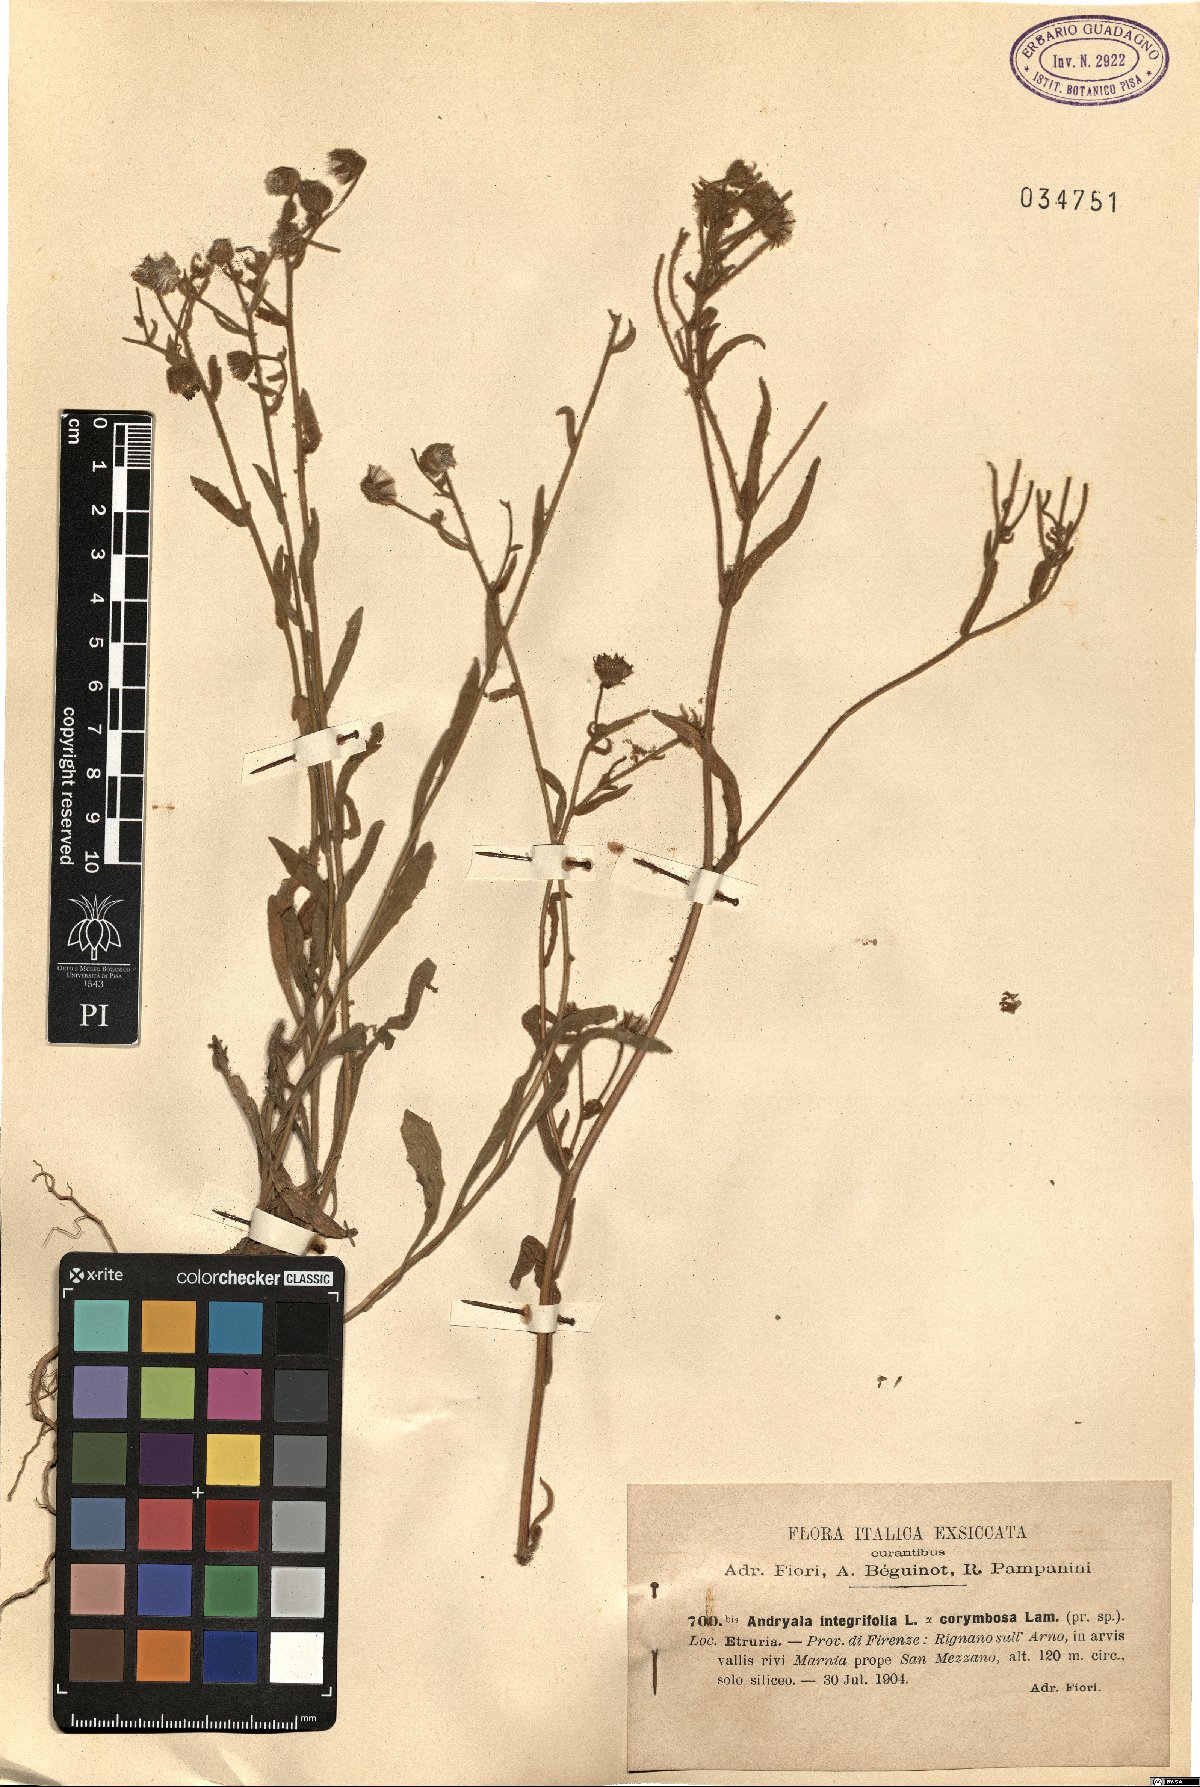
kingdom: Plantae
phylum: Tracheophyta
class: Magnoliopsida
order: Asterales
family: Asteraceae
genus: Andryala
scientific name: Andryala integrifolia
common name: Common andryala
